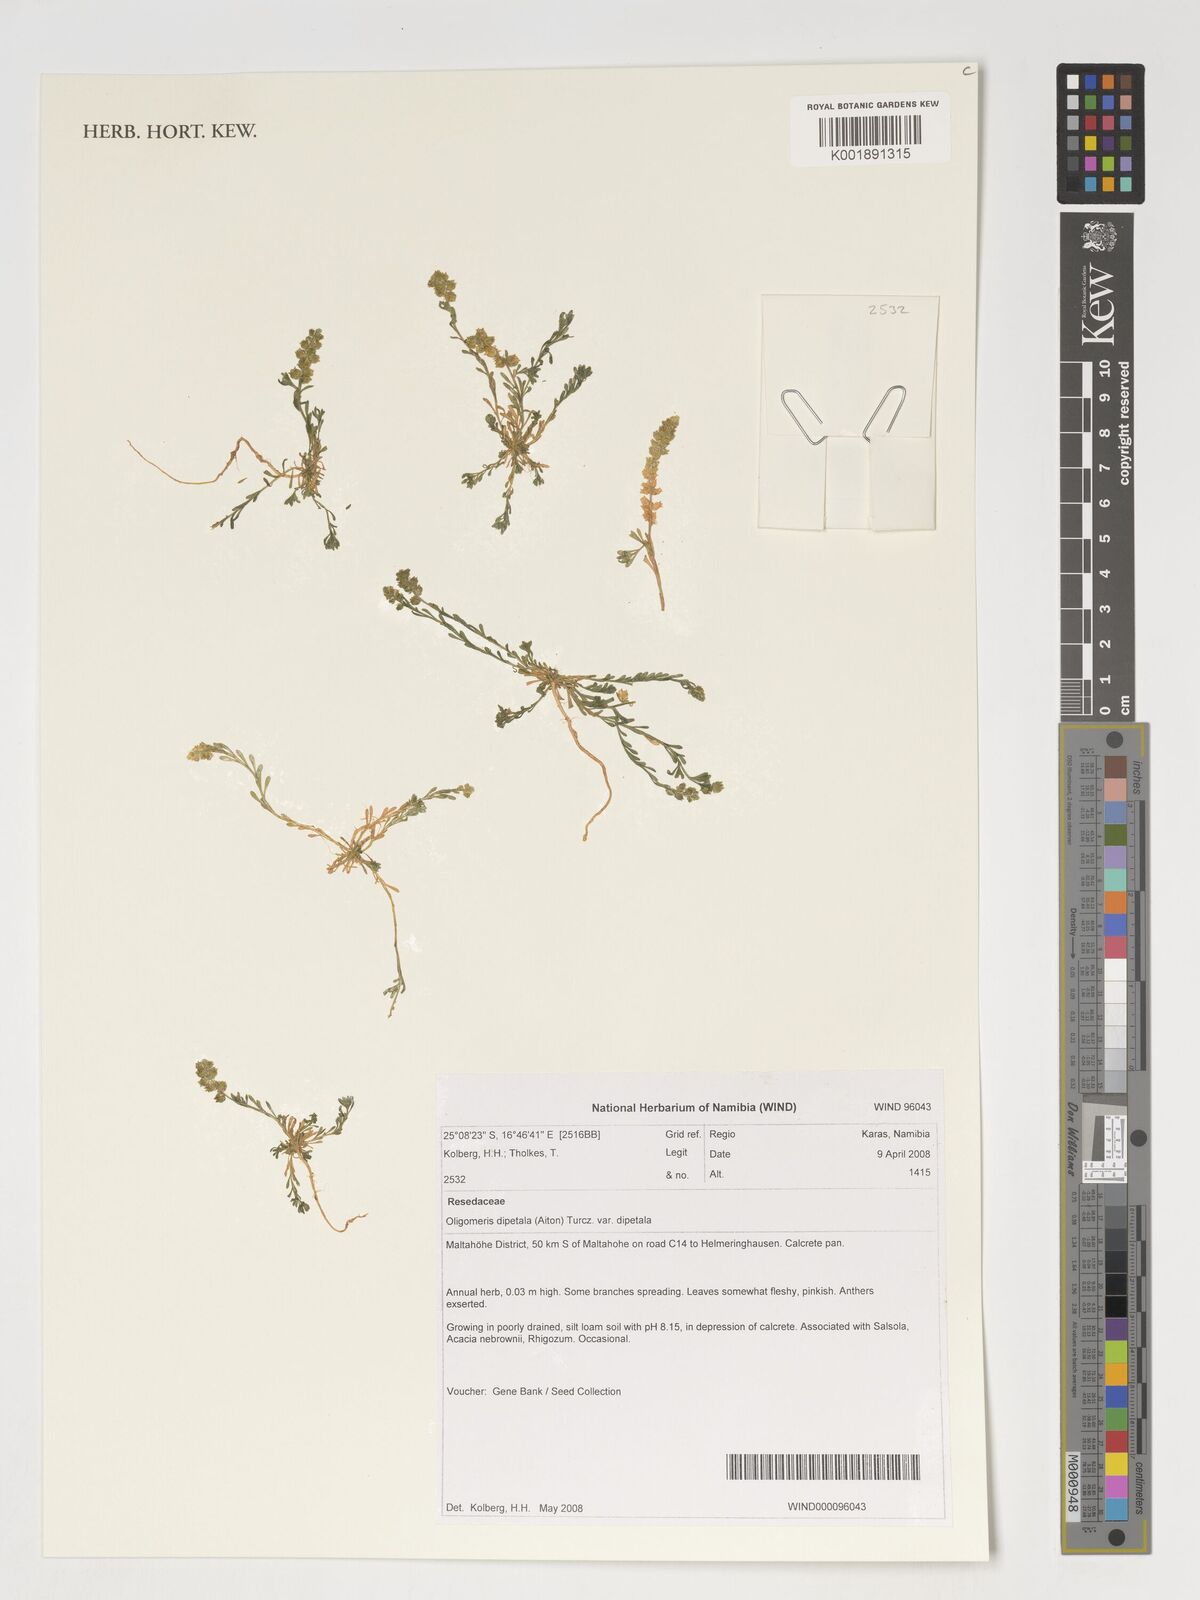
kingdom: Plantae
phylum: Tracheophyta
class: Magnoliopsida
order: Brassicales
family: Resedaceae
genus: Oligomeris
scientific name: Oligomeris dipetala
